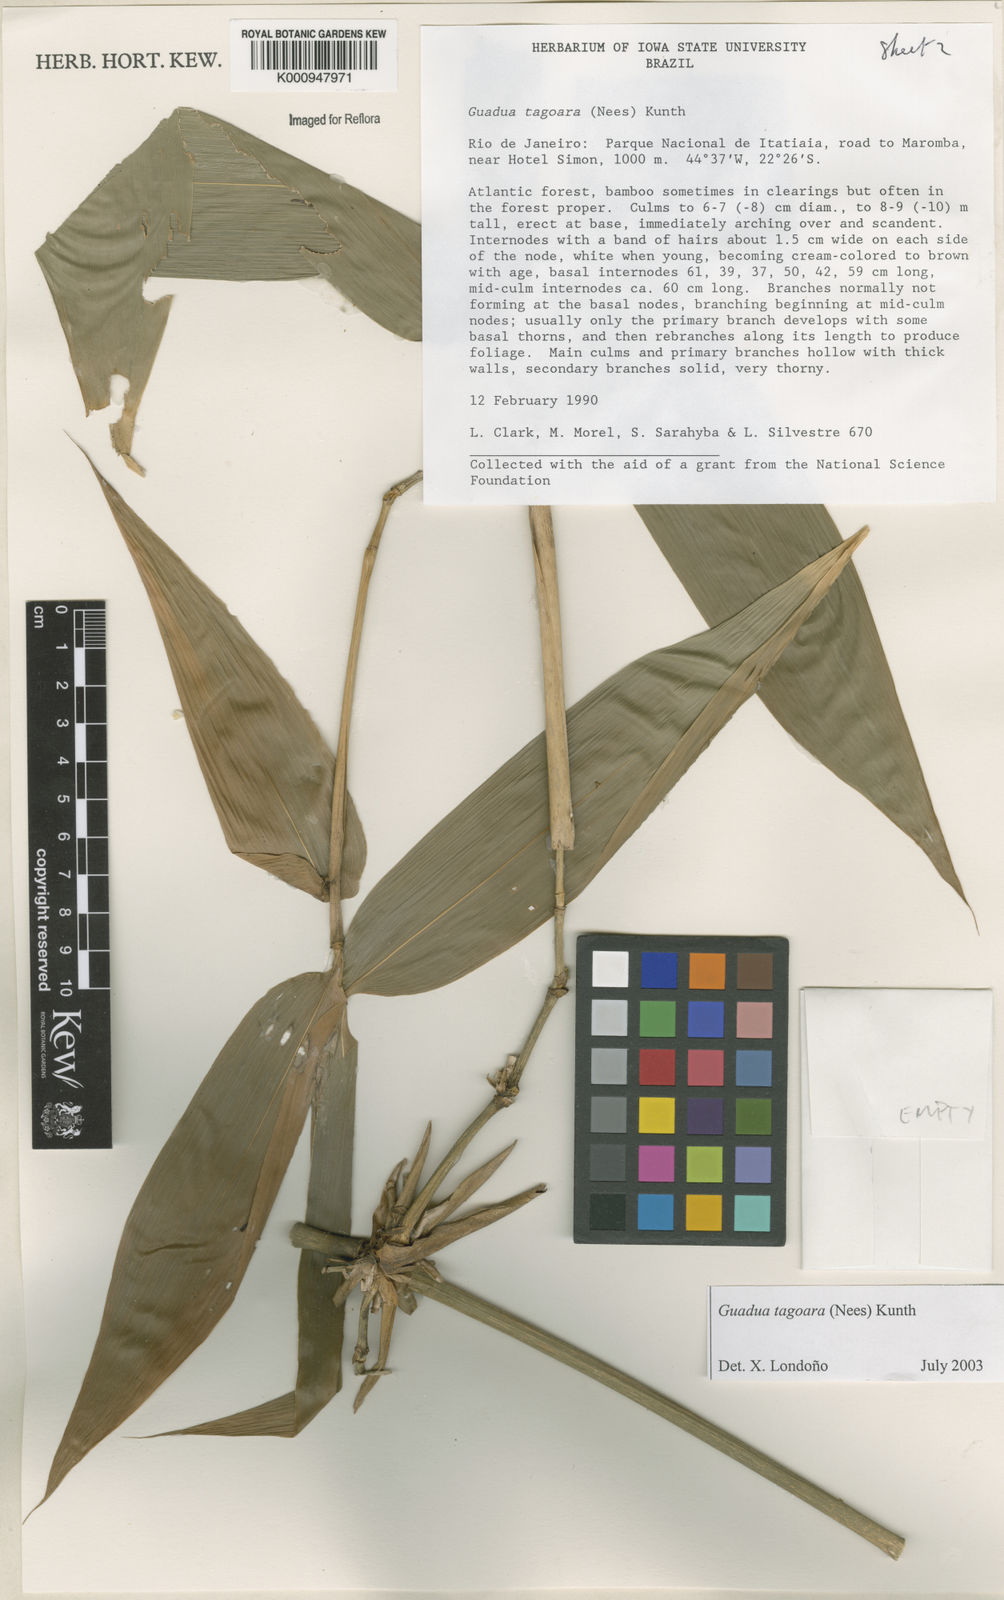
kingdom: Plantae
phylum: Tracheophyta
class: Liliopsida
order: Poales
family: Poaceae
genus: Guadua
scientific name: Guadua tagoara
